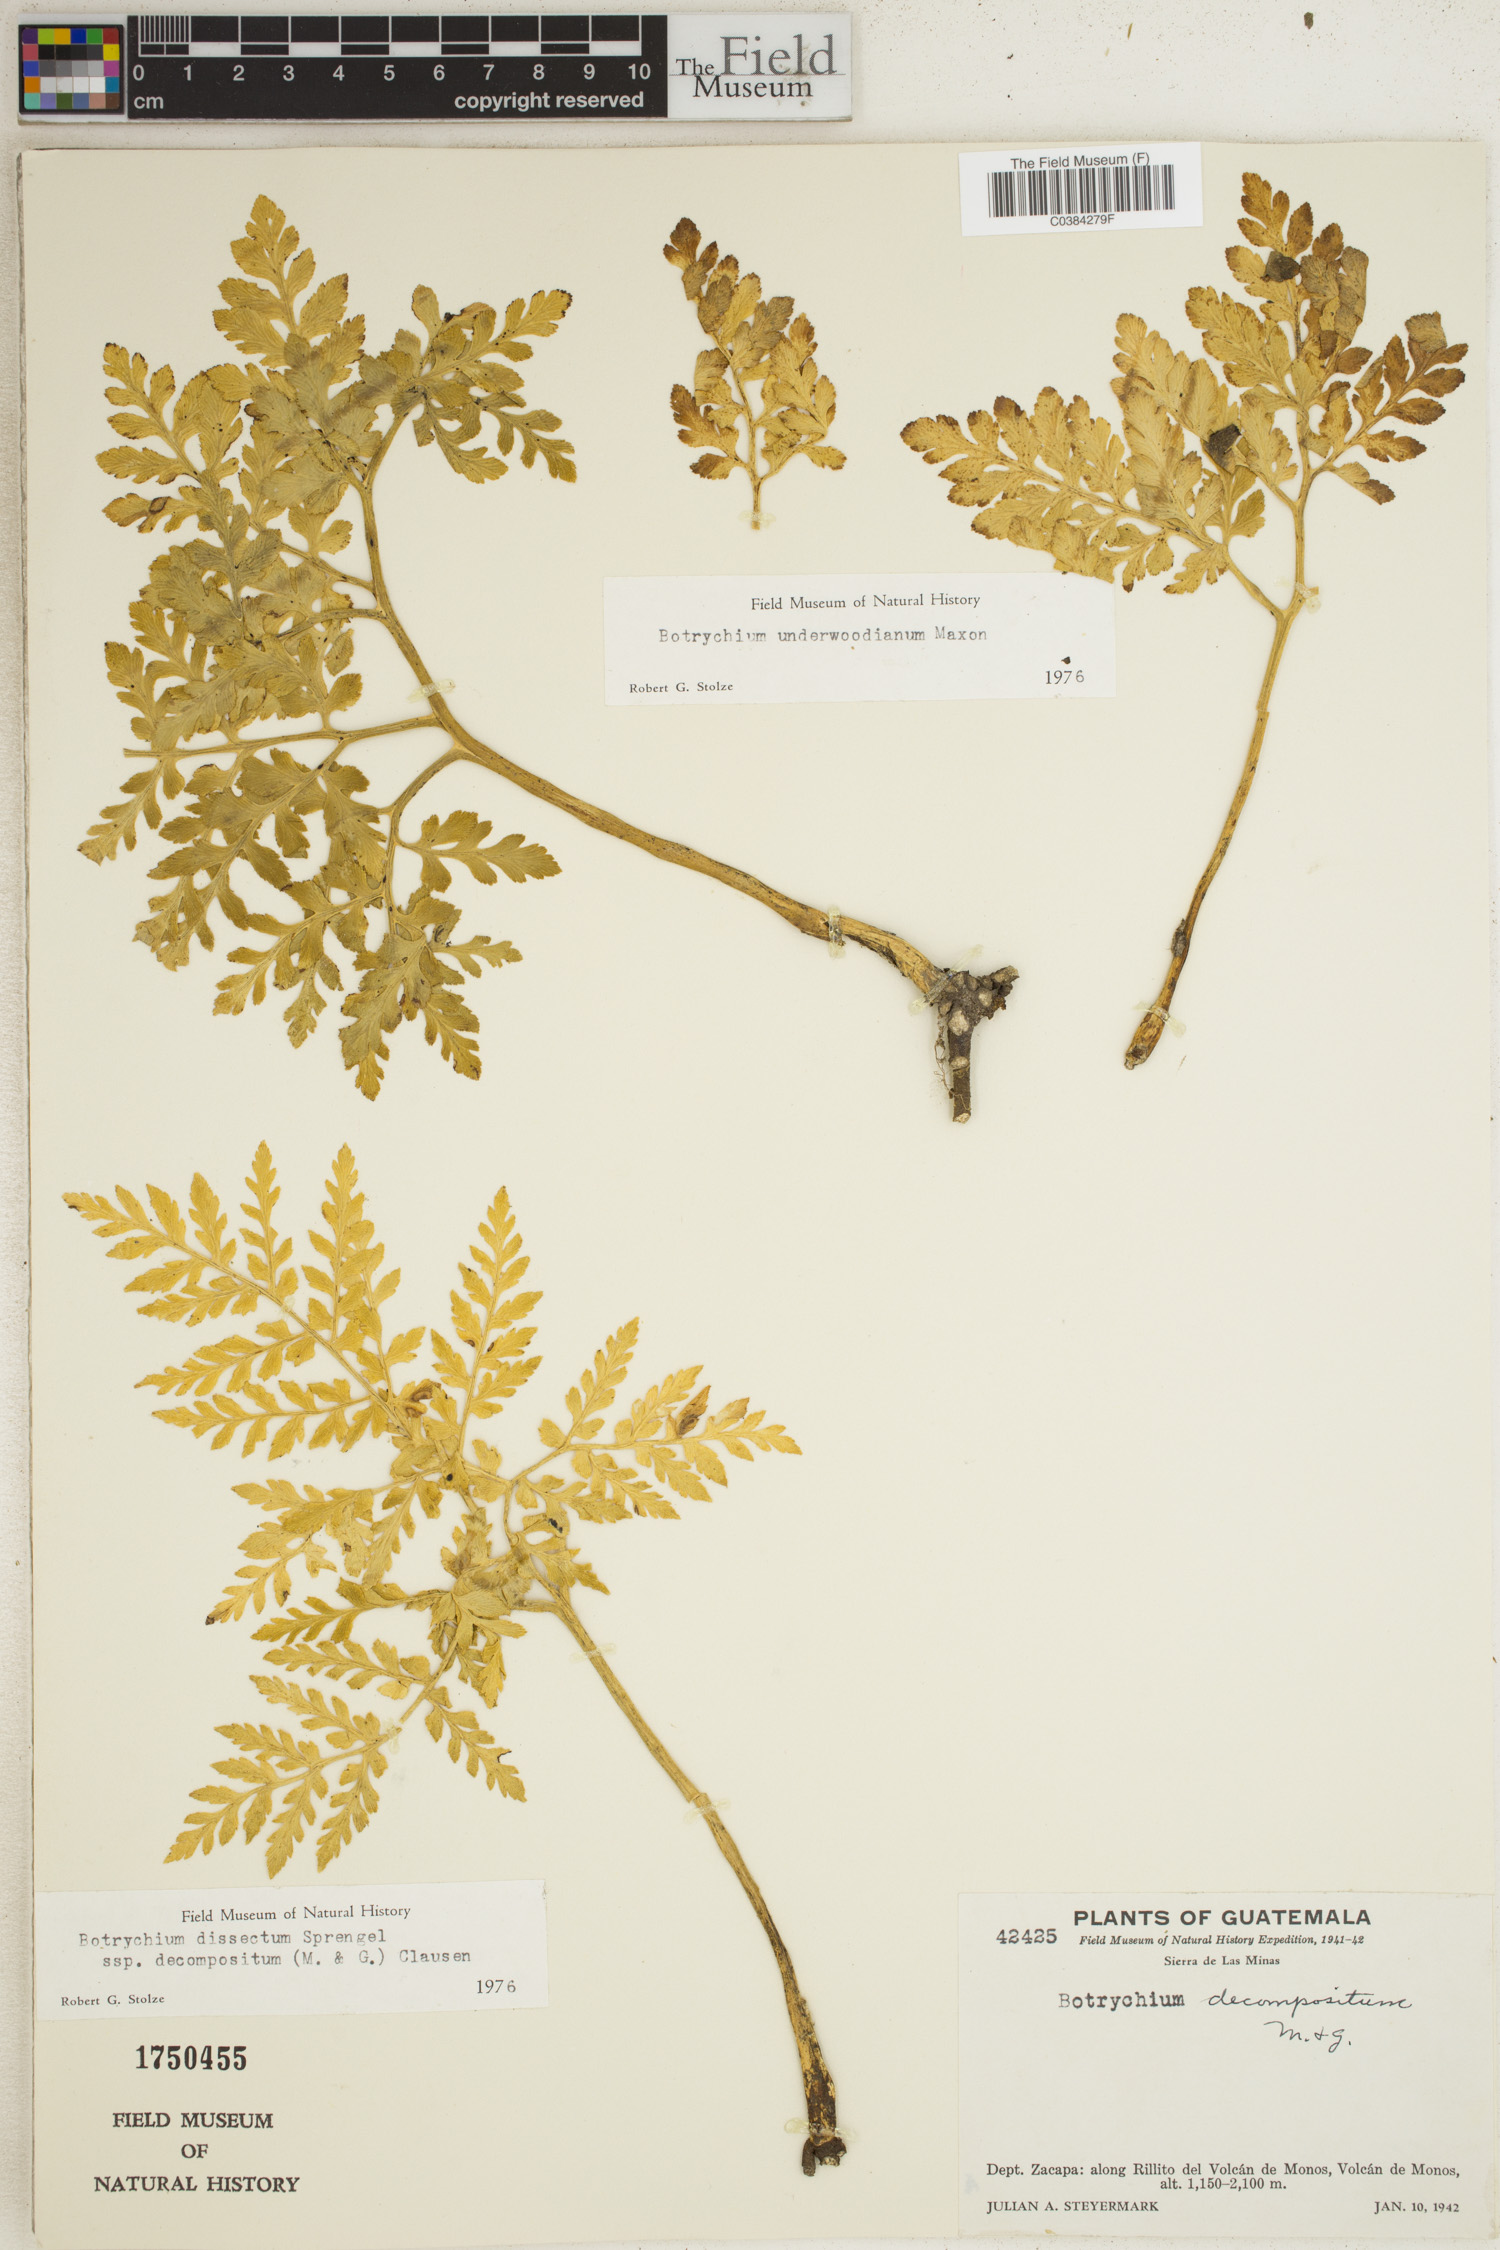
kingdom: Plantae
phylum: Tracheophyta
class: Polypodiopsida
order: Ophioglossales
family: Ophioglossaceae
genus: Sceptridium
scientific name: Sceptridium underwoodianum
